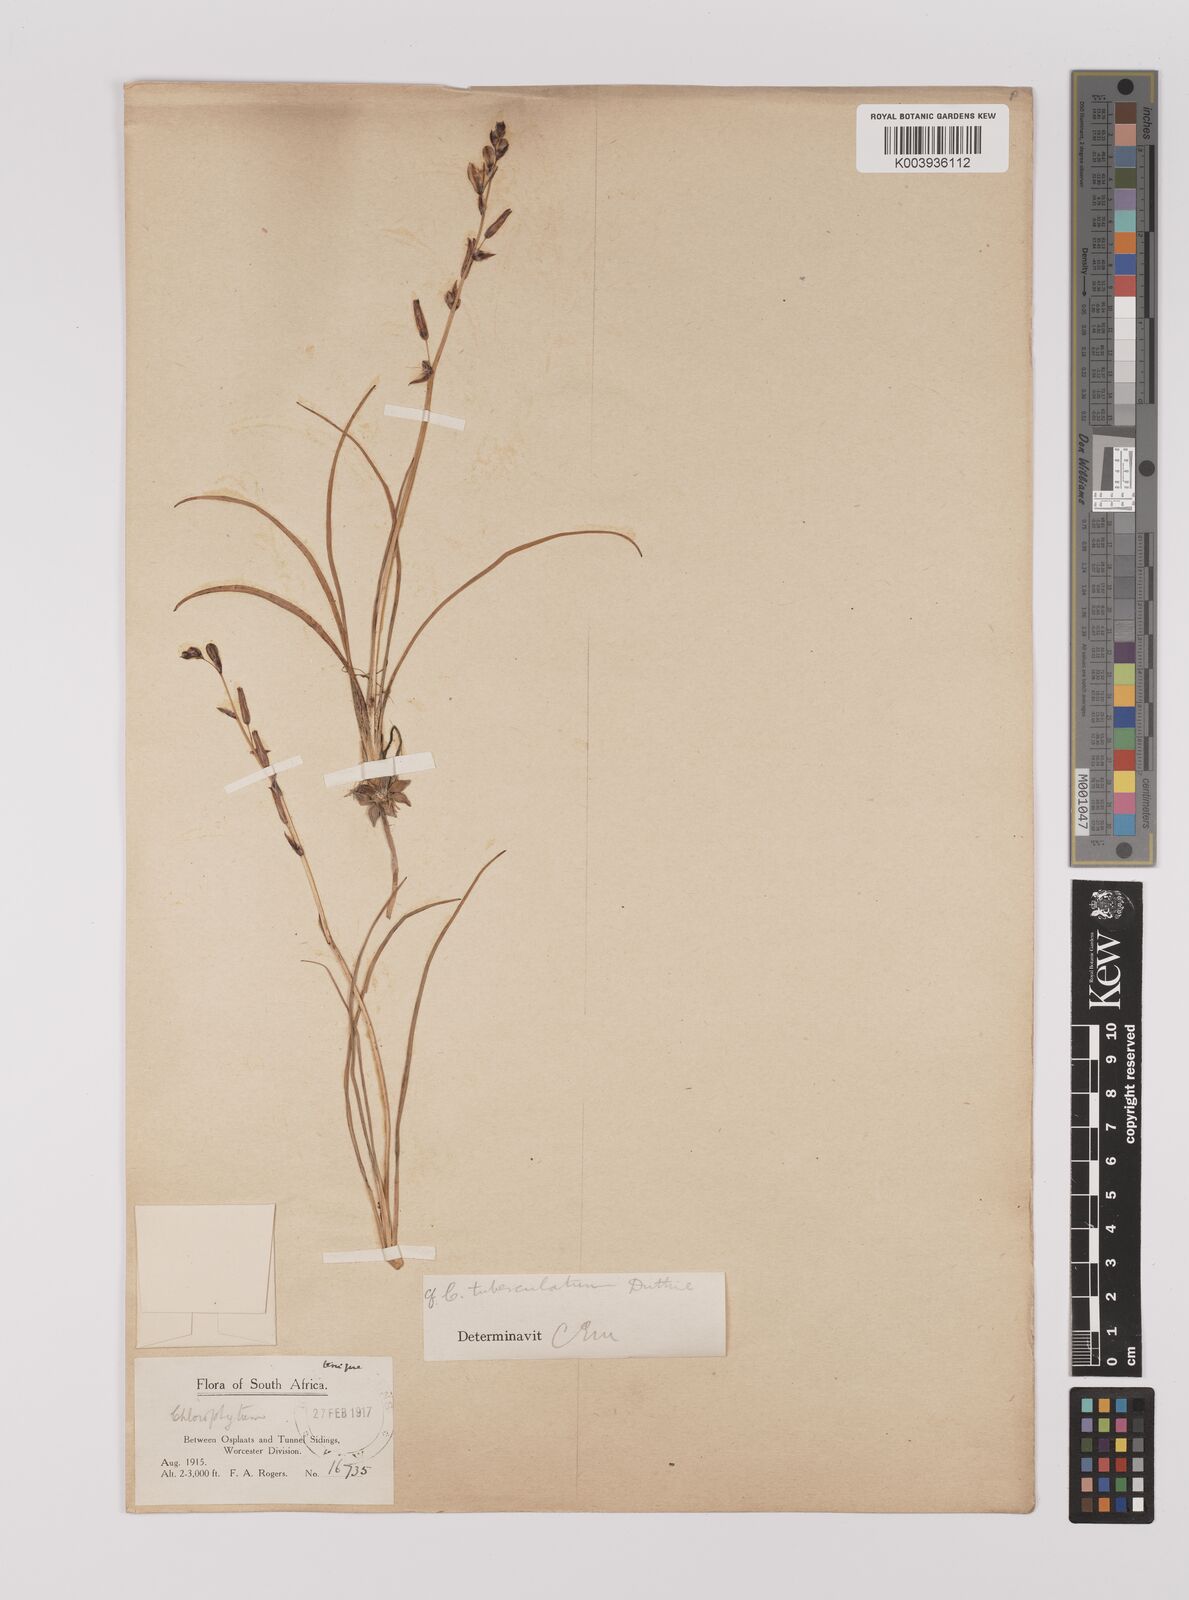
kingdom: Plantae
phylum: Tracheophyta
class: Liliopsida
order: Asparagales
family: Asparagaceae
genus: Chlorophytum
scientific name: Chlorophytum graminifolium
